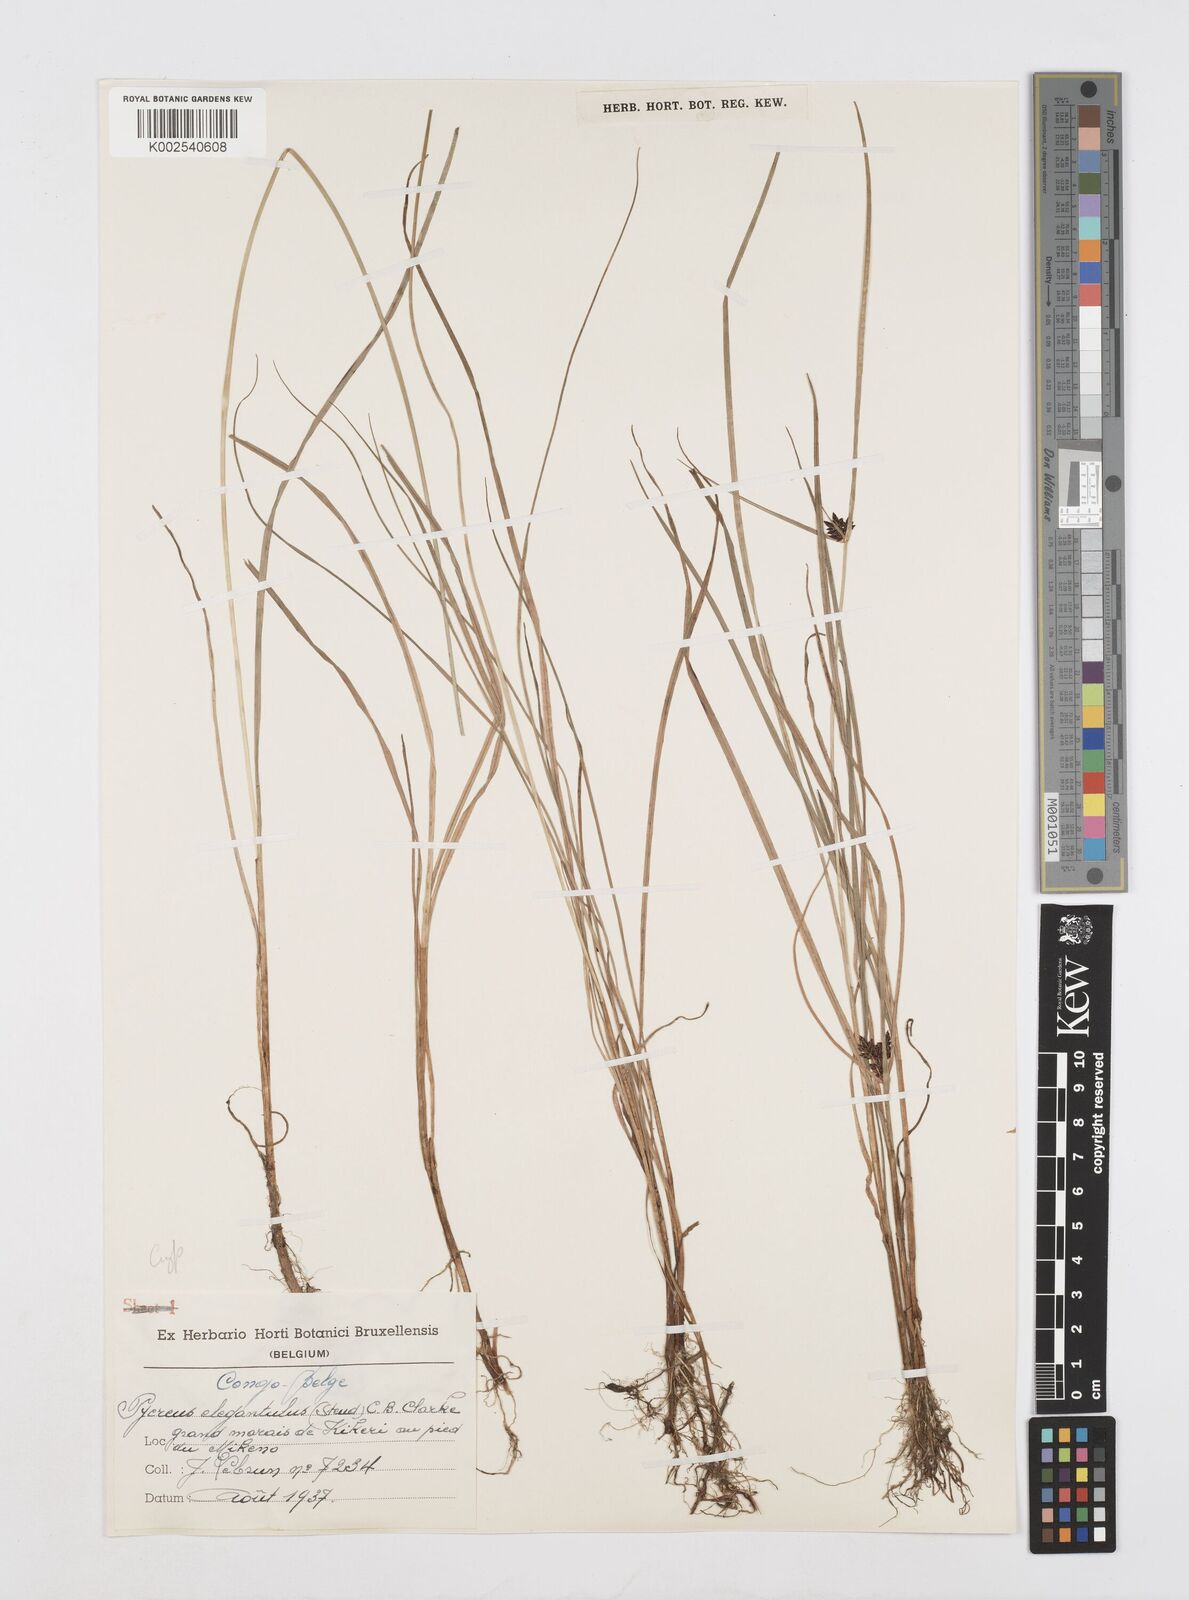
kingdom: Plantae
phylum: Tracheophyta
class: Liliopsida
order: Poales
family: Cyperaceae
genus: Cyperus
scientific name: Cyperus elegantulus
